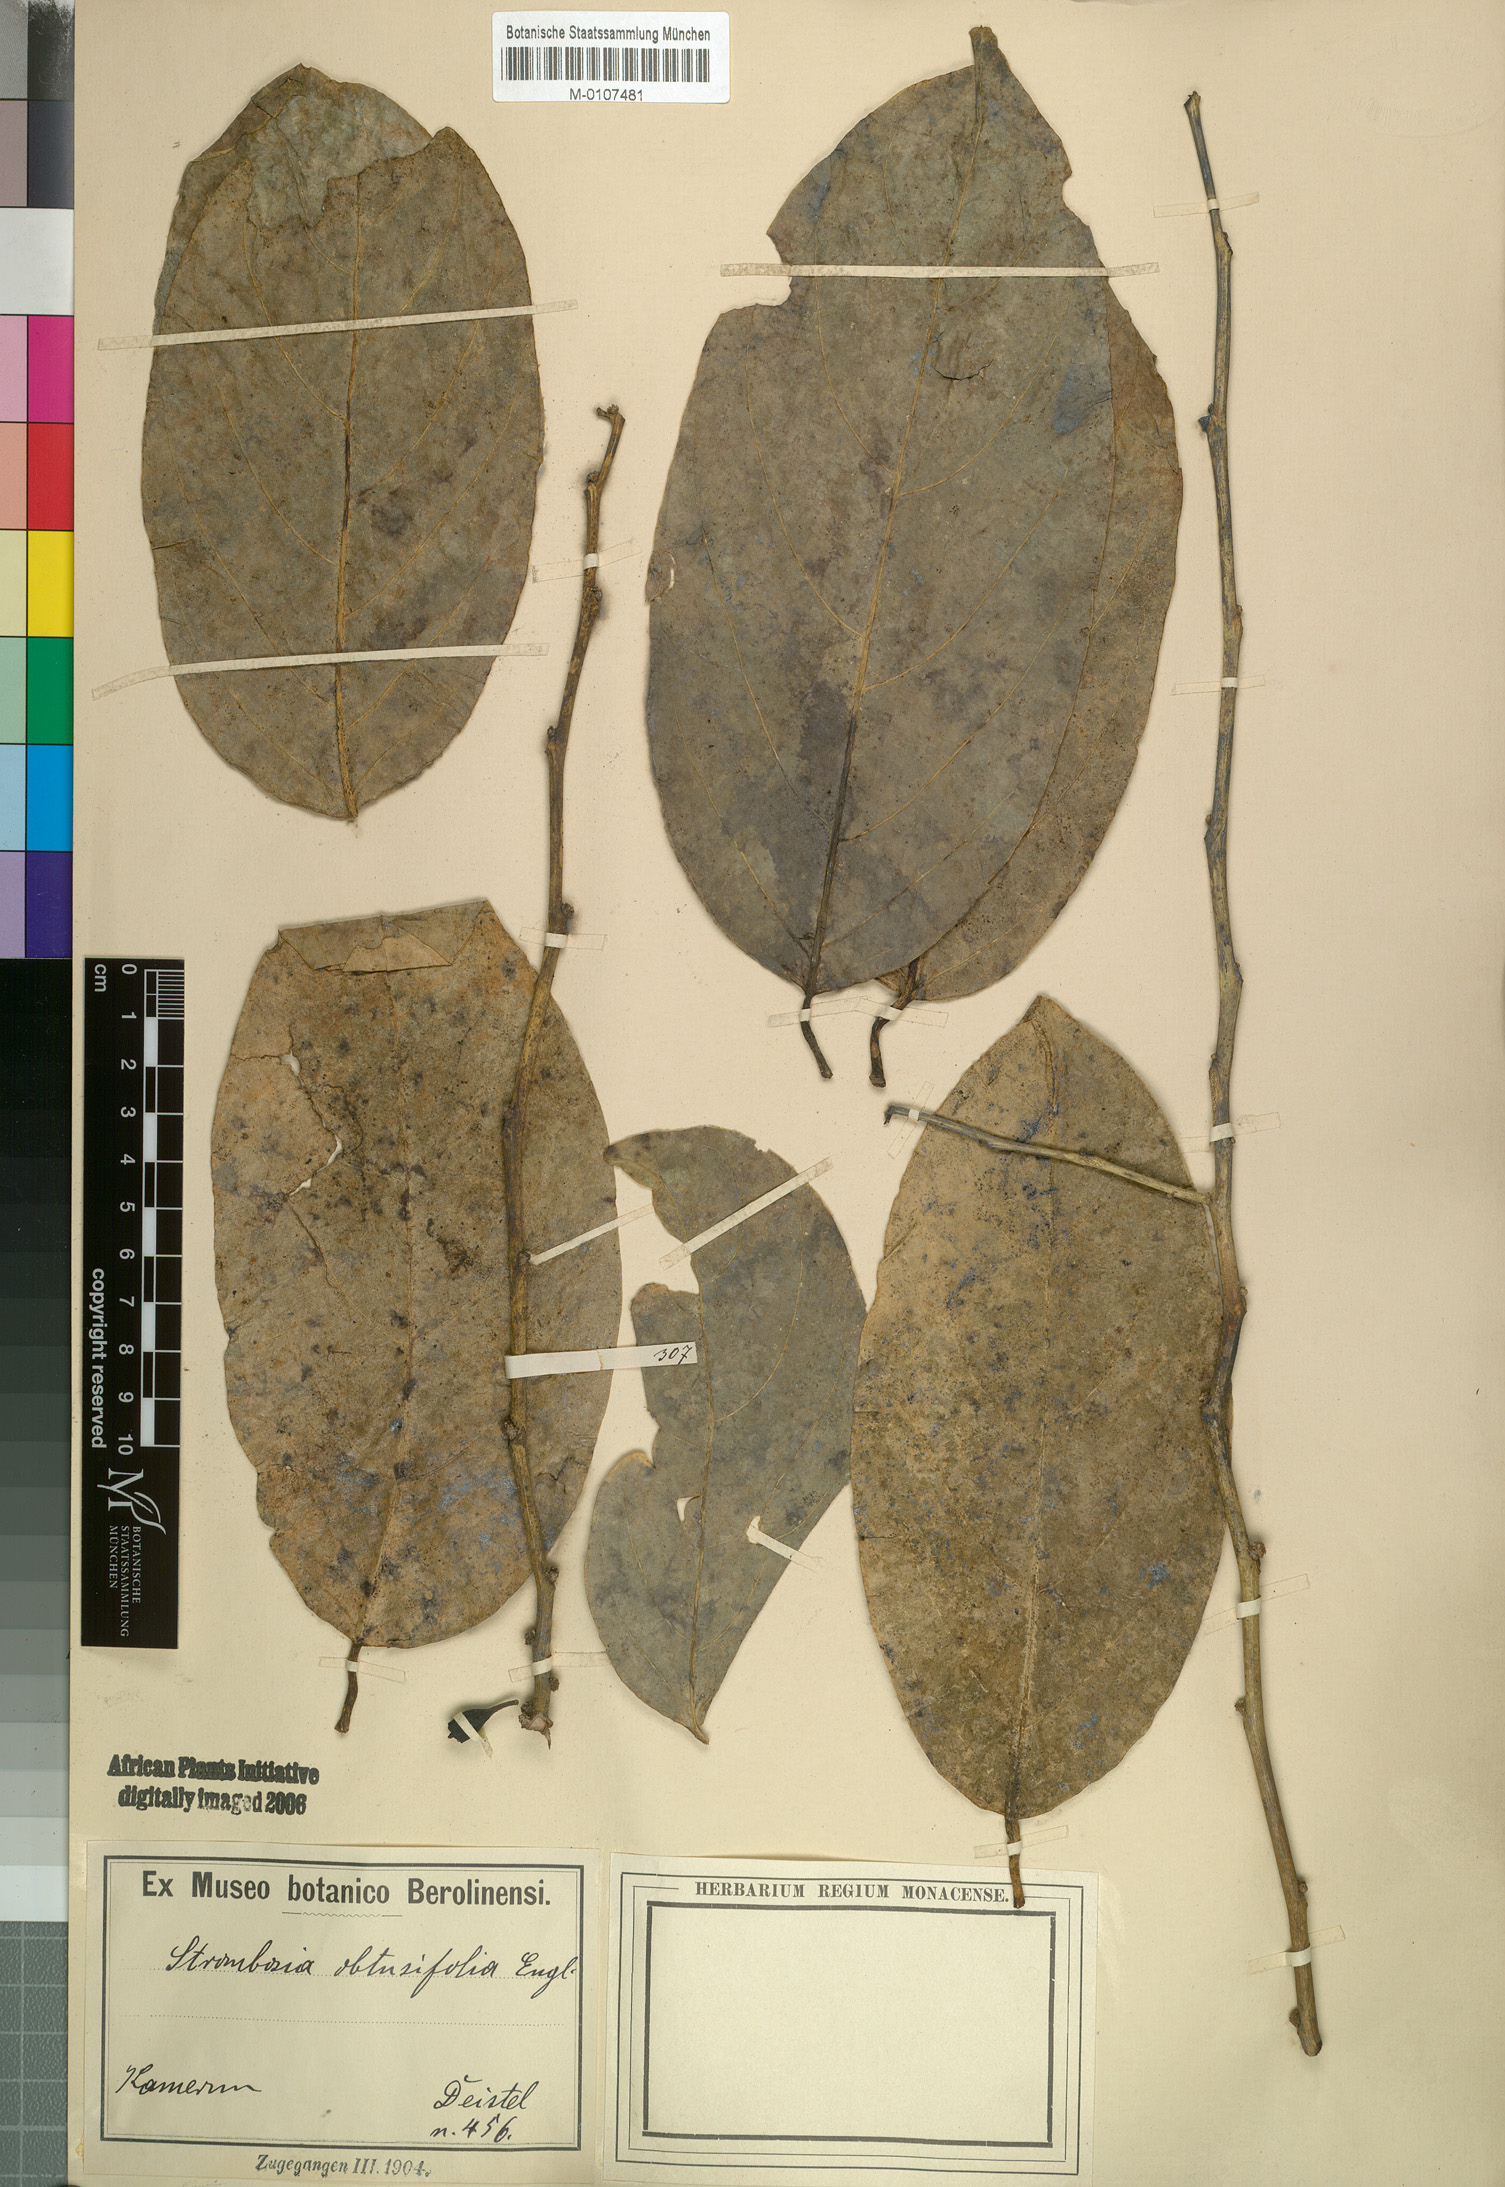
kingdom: Plantae
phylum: Tracheophyta
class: Magnoliopsida
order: Santalales
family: Strombosiaceae
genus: Strombosiopsis
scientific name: Strombosiopsis
